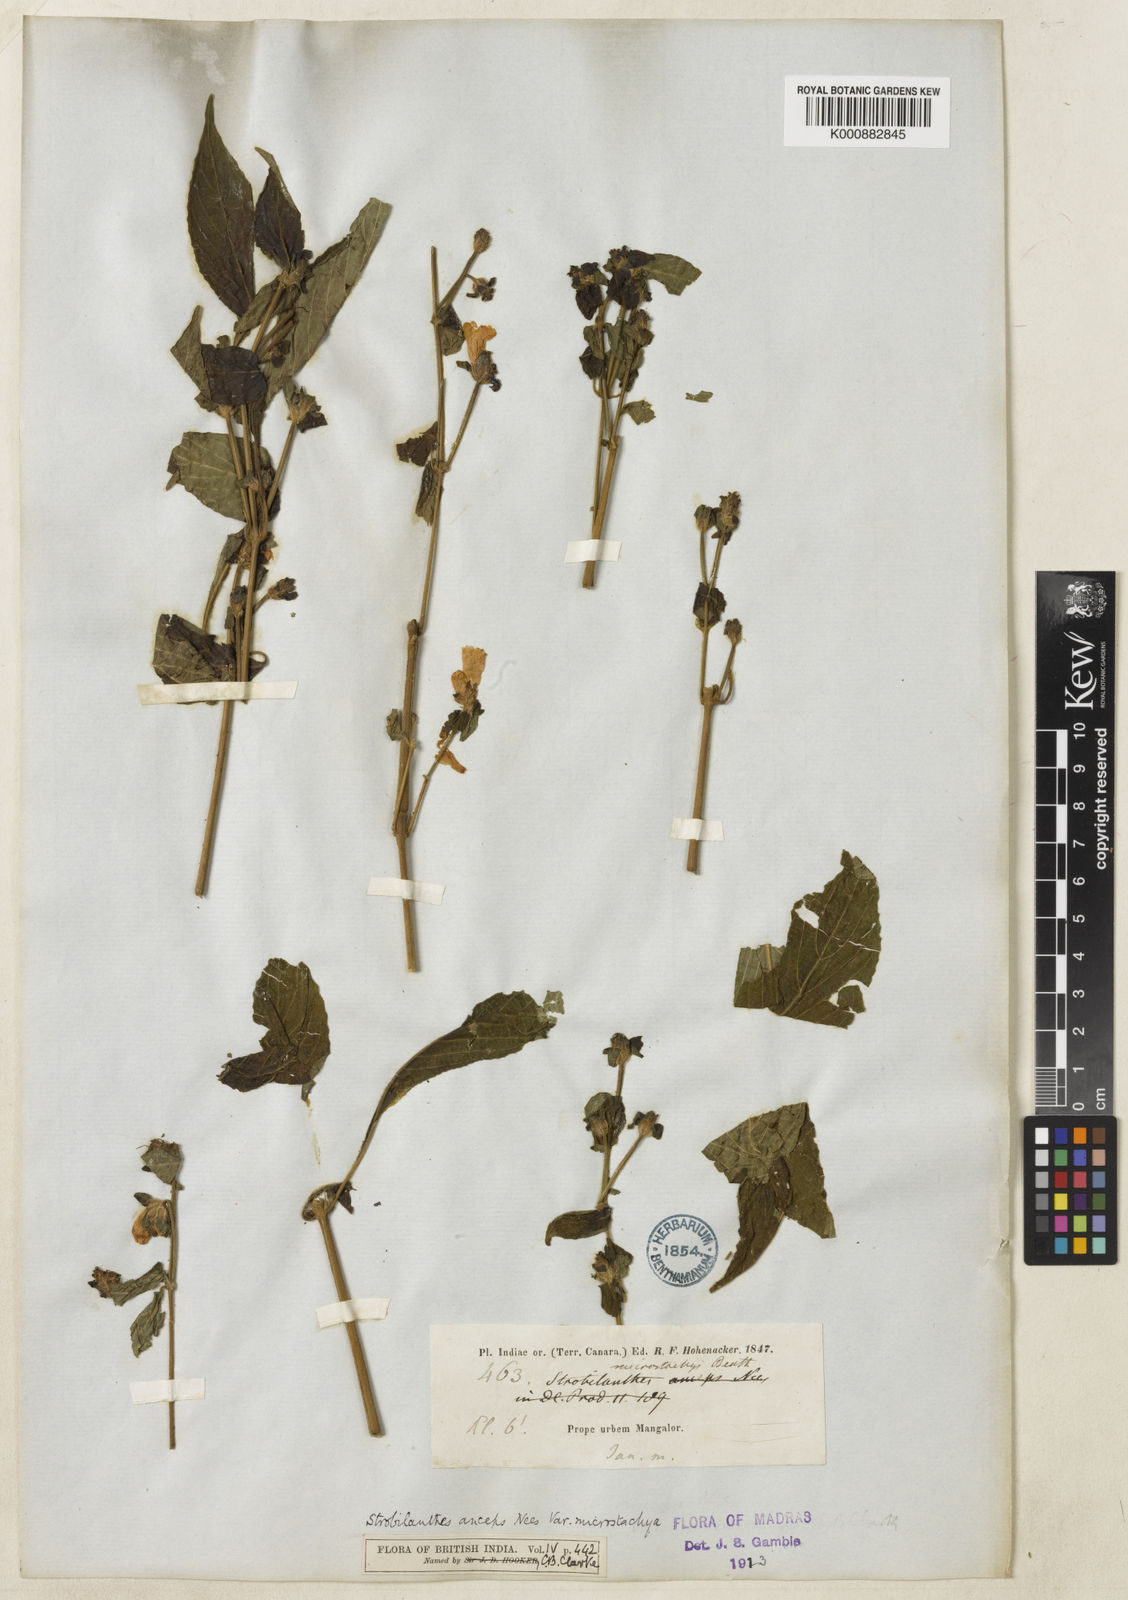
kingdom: Plantae
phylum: Tracheophyta
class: Magnoliopsida
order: Lamiales
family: Acanthaceae
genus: Strobilanthes
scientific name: Strobilanthes
